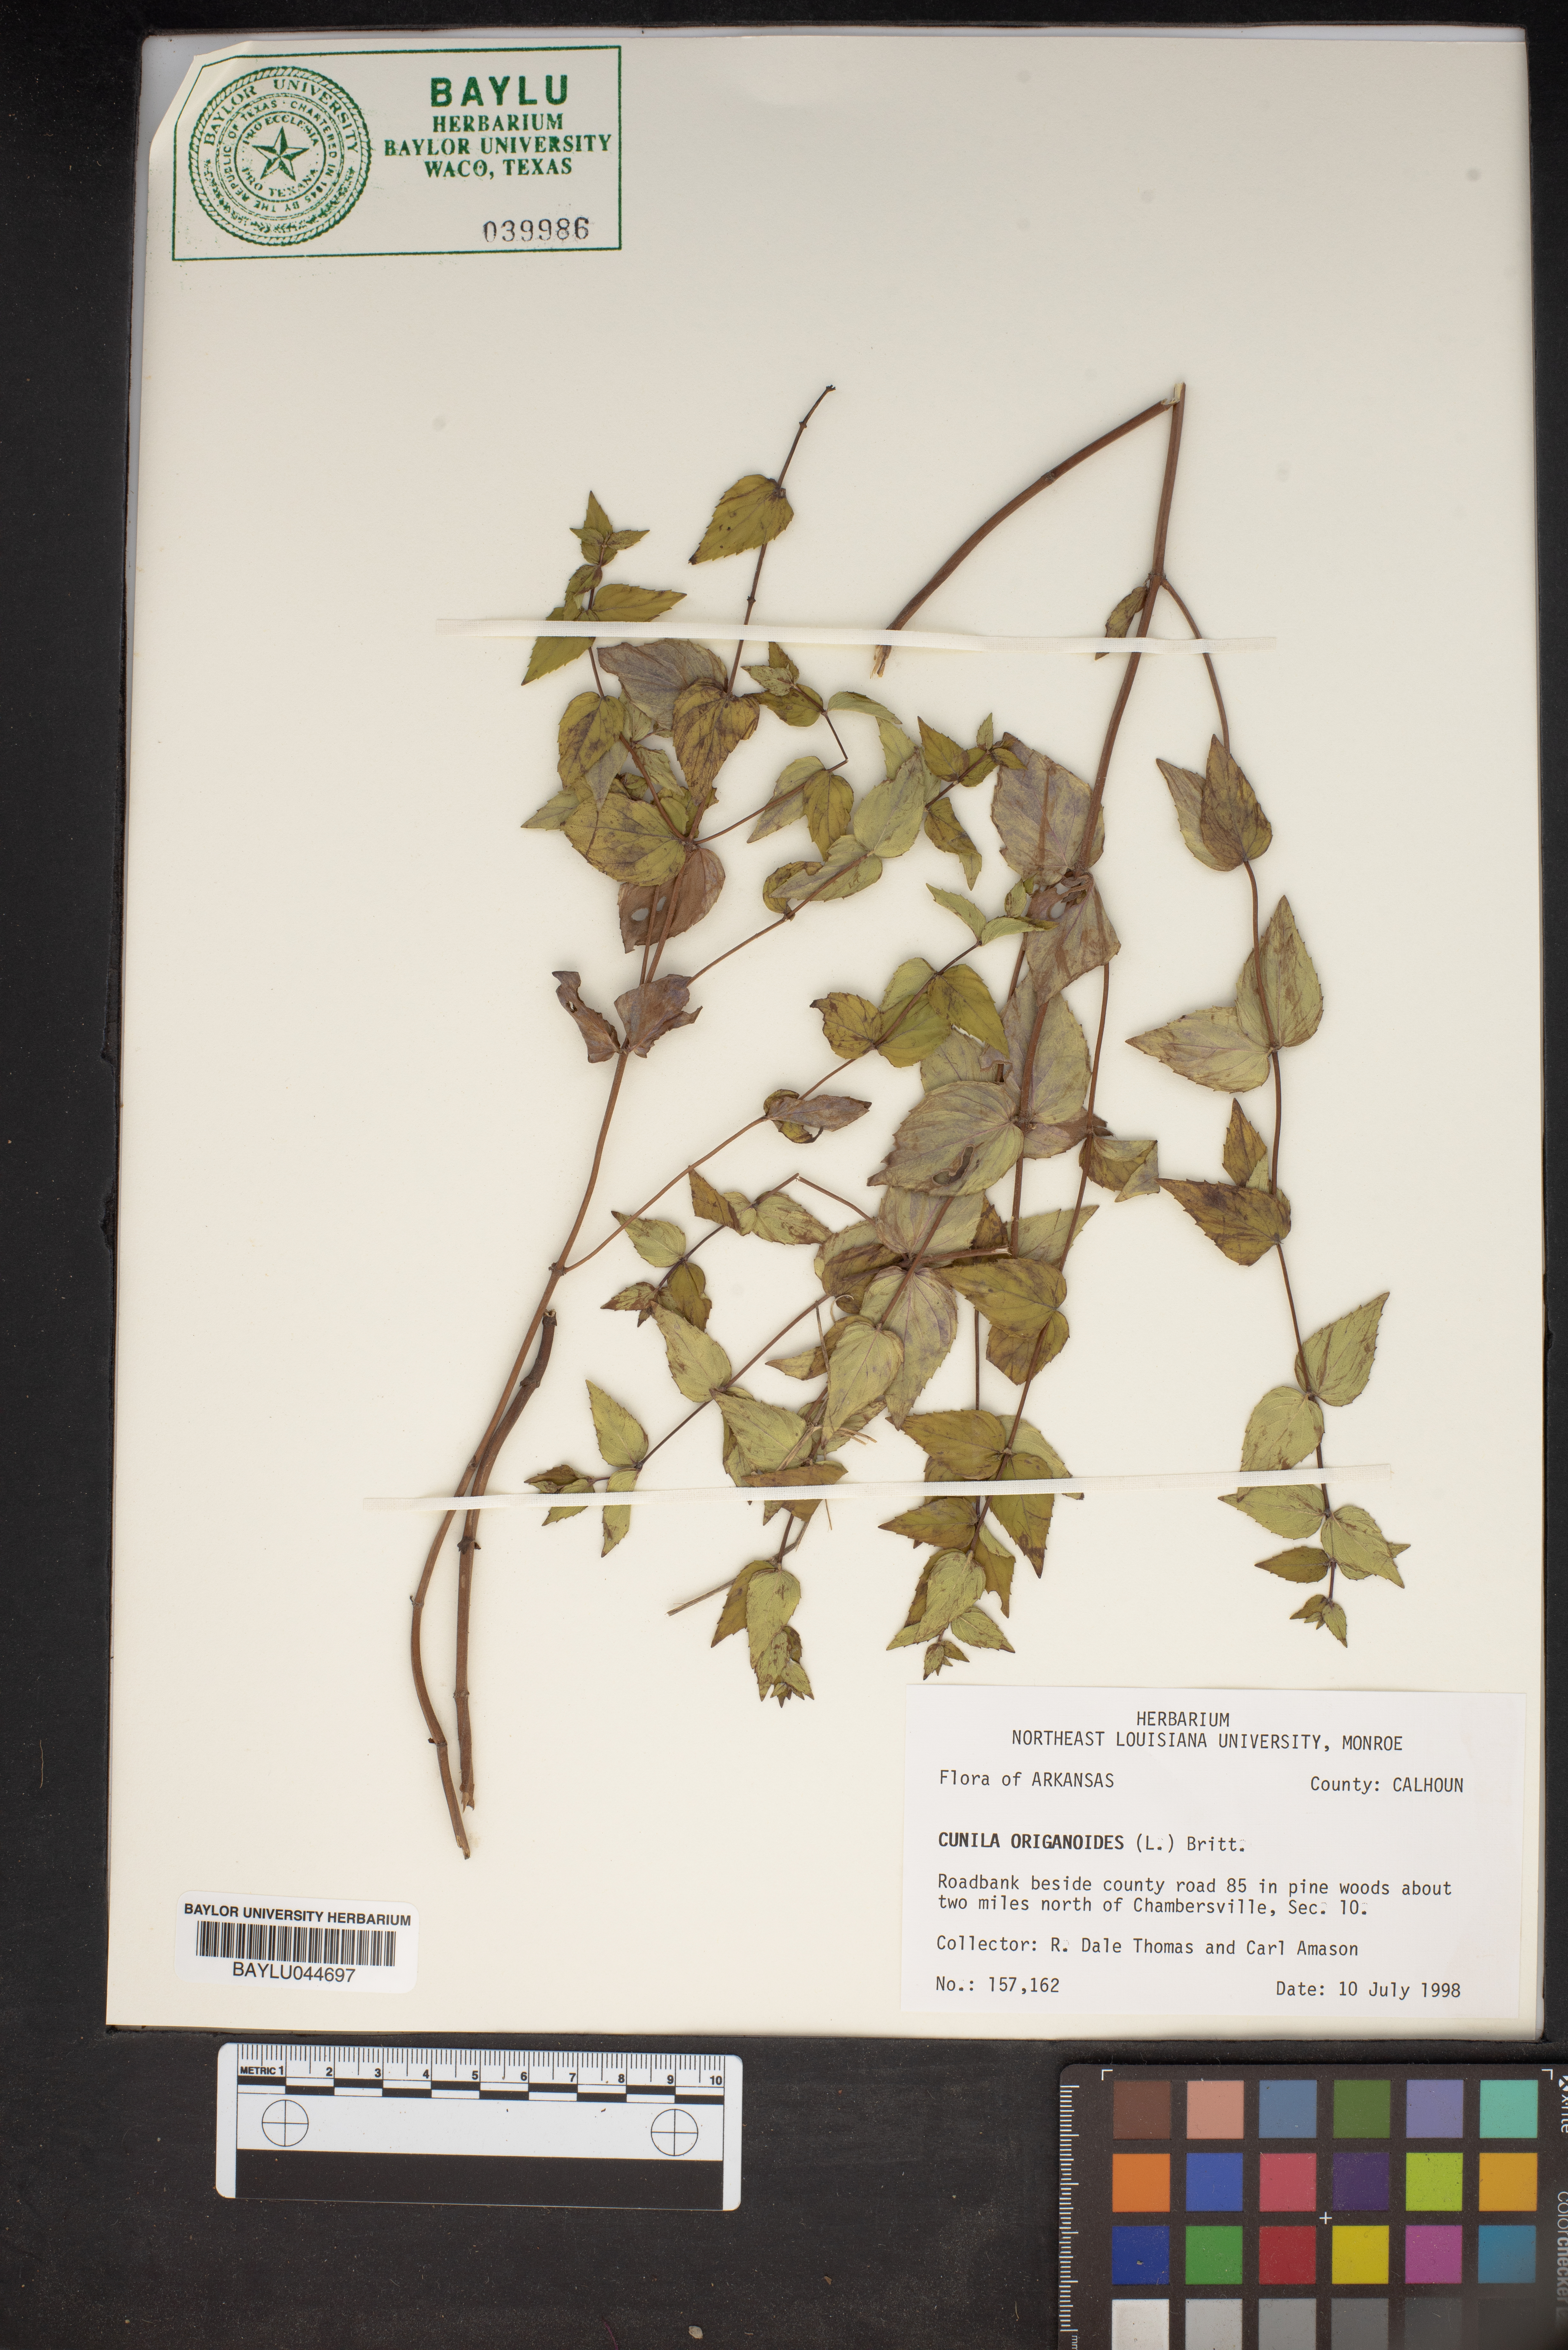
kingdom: Plantae
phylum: Tracheophyta
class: Magnoliopsida
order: Lamiales
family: Lamiaceae
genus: Cunila
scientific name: Cunila origanoides
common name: American dittany
